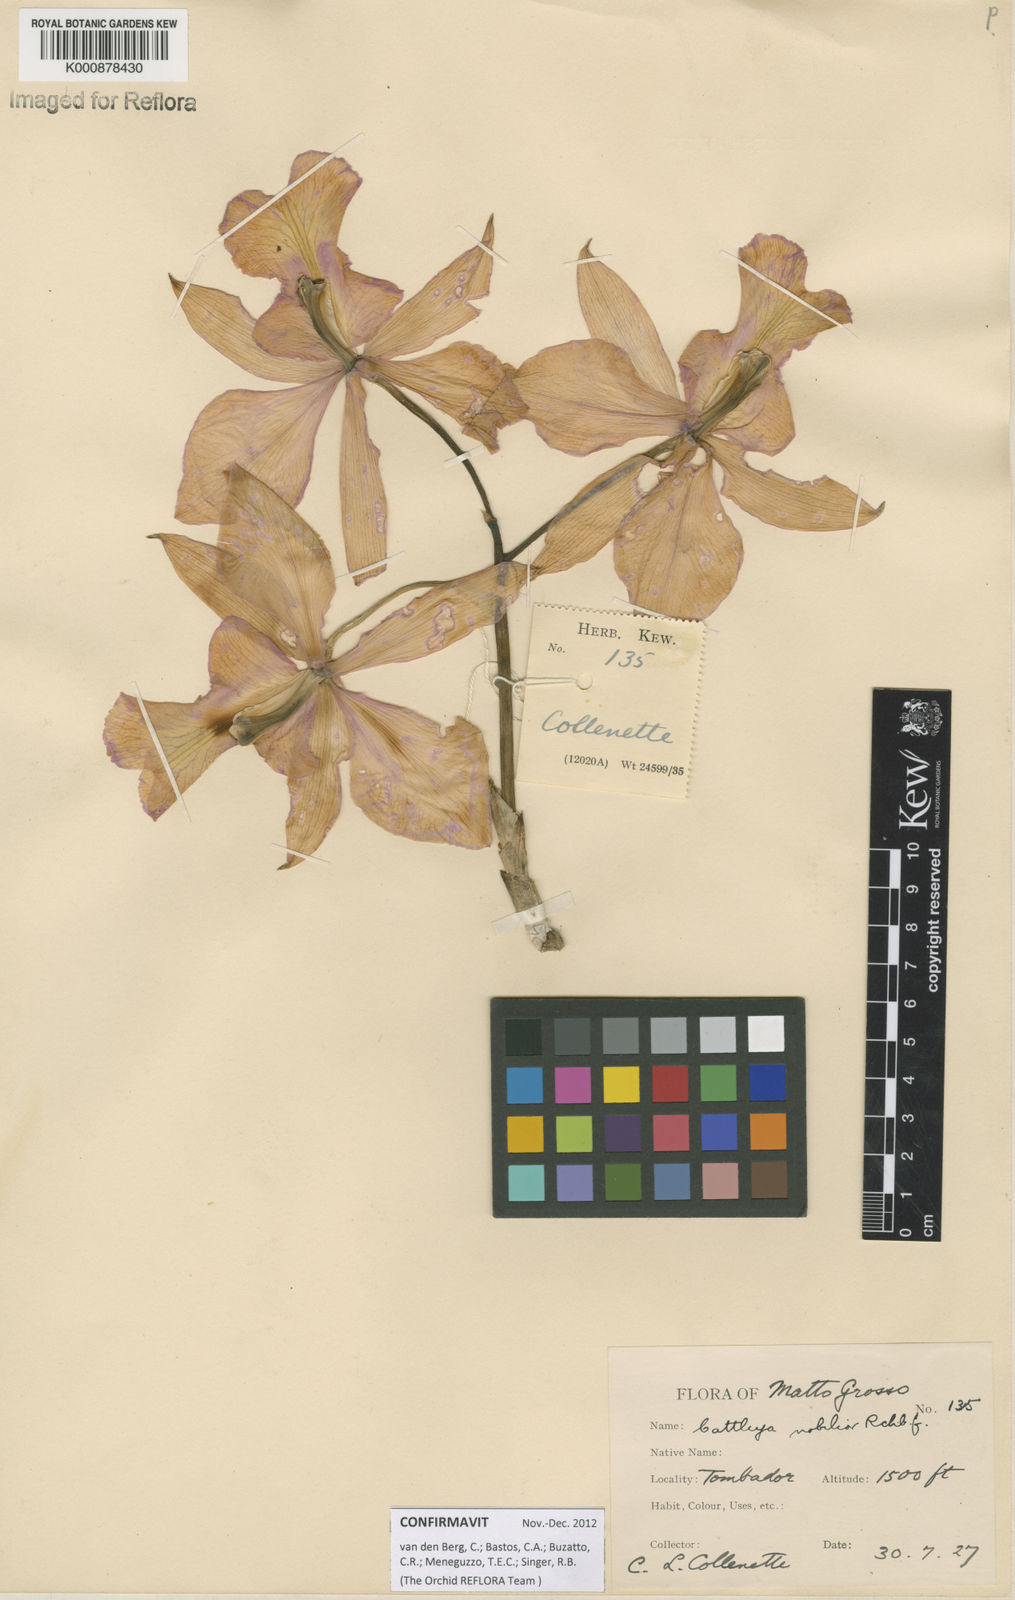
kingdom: Plantae
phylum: Tracheophyta
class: Liliopsida
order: Asparagales
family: Orchidaceae
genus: Cattleya
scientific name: Cattleya nobilior
